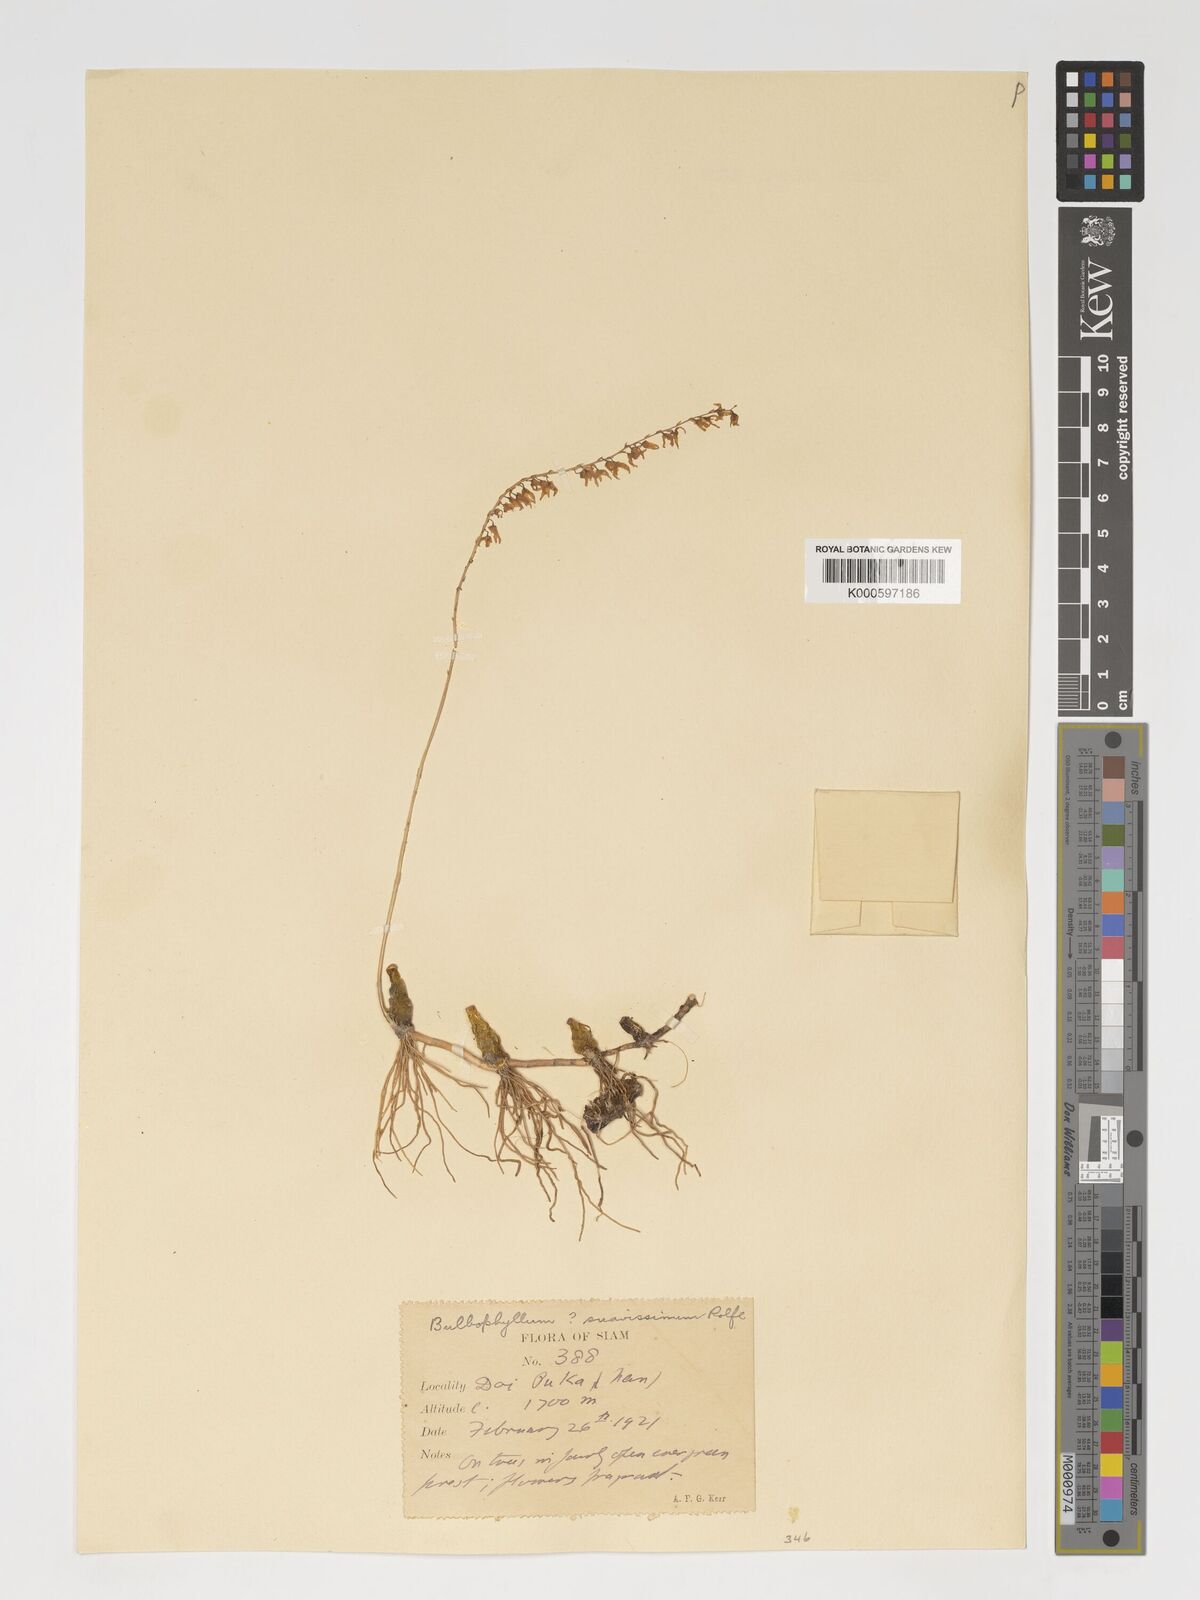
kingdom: Plantae
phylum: Tracheophyta
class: Liliopsida
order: Asparagales
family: Orchidaceae
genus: Bulbophyllum
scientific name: Bulbophyllum suavissimum
